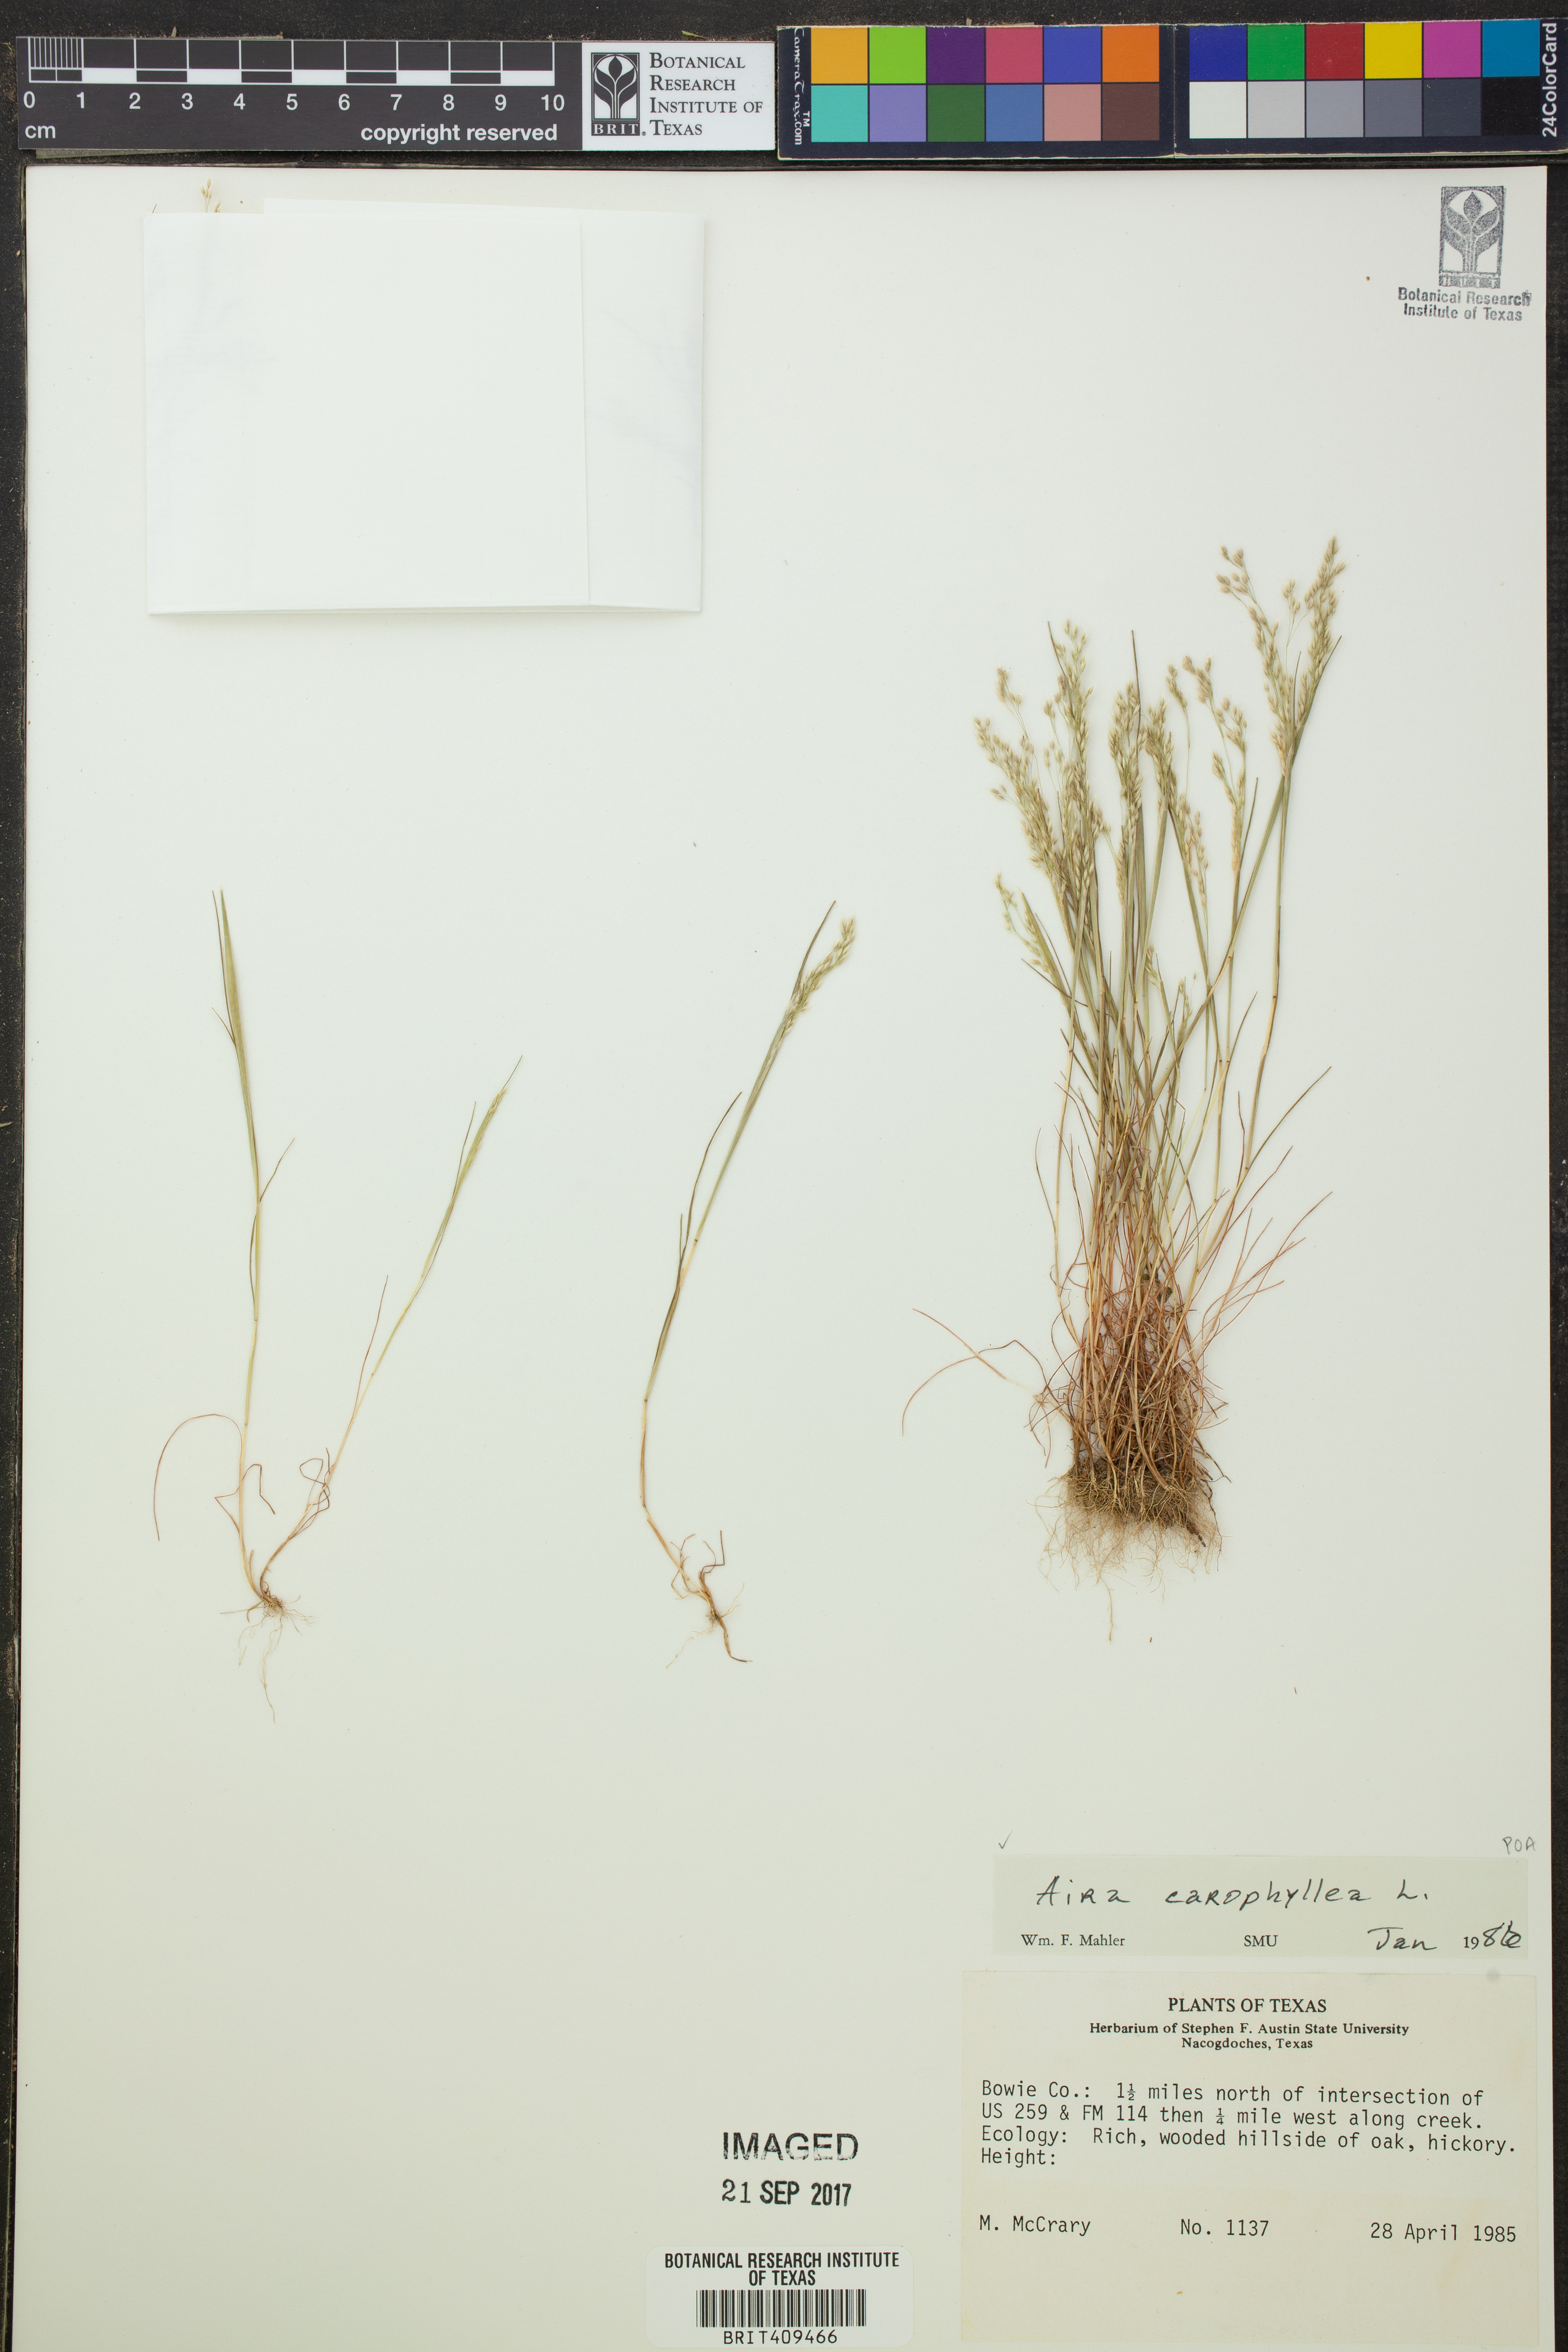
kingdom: Plantae
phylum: Tracheophyta
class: Liliopsida
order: Poales
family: Poaceae
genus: Aira
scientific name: Aira caryophyllea
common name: Silver hairgrass
